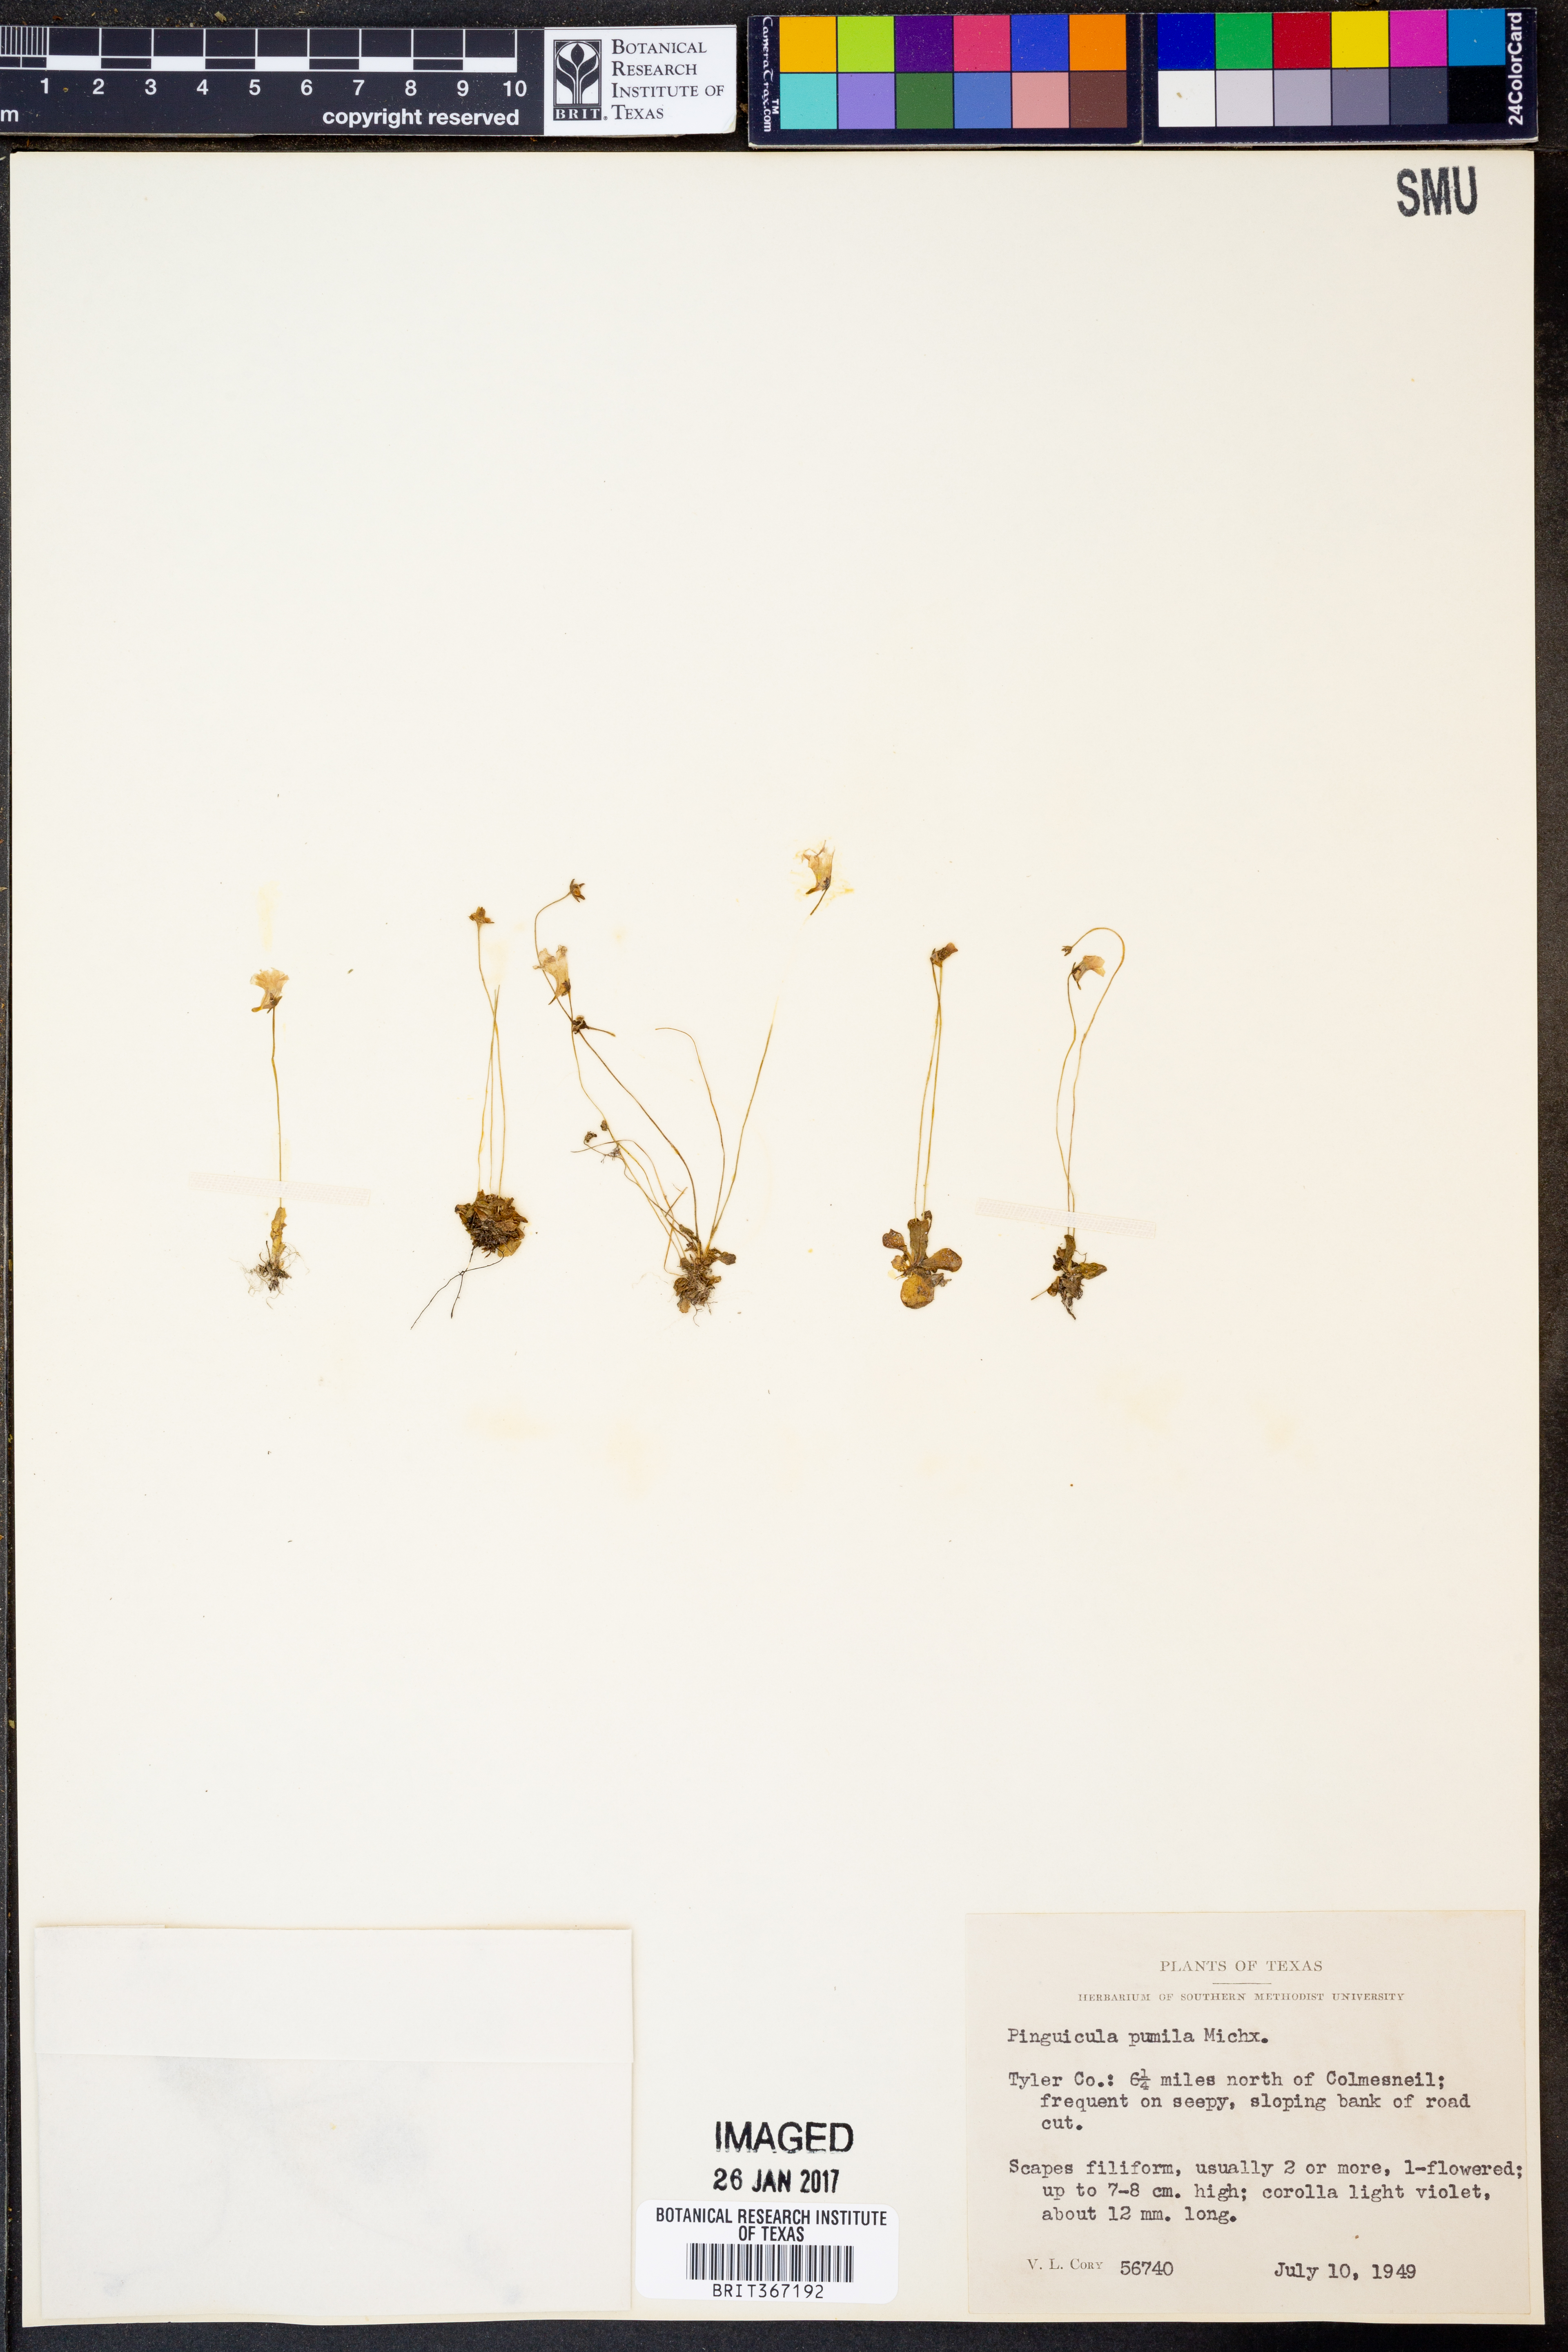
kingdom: Plantae
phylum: Tracheophyta
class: Magnoliopsida
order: Lamiales
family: Lentibulariaceae
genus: Pinguicula
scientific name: Pinguicula pumila
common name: Small butterwort
